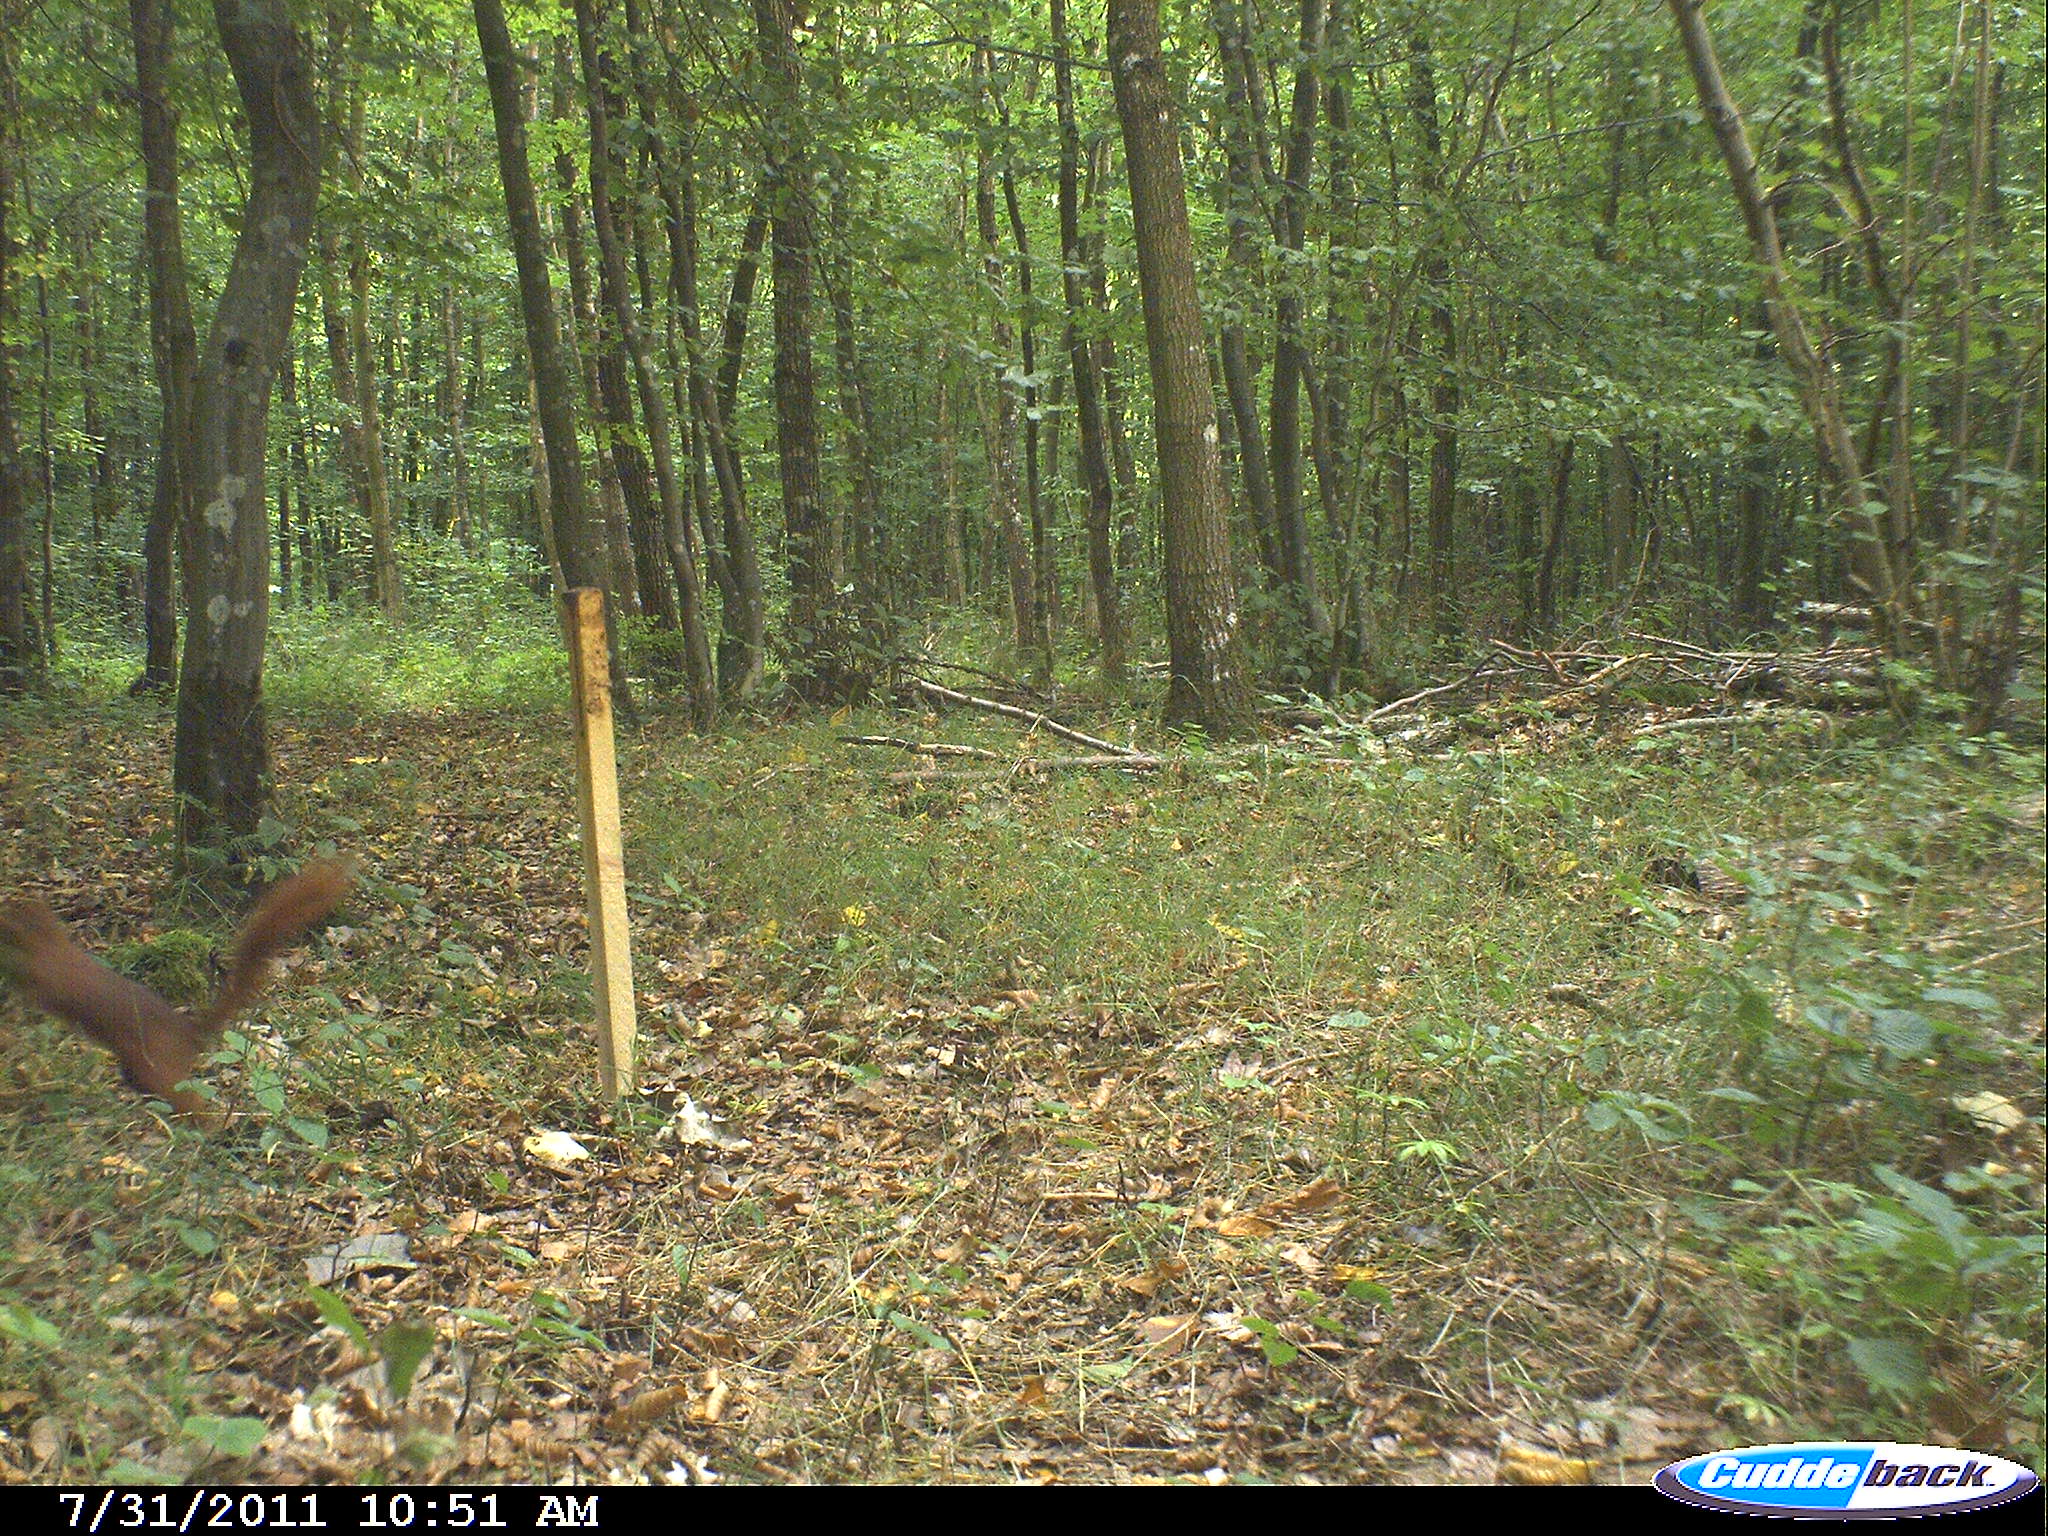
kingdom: Animalia
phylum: Chordata
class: Mammalia
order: Rodentia
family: Sciuridae
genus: Sciurus
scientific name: Sciurus vulgaris
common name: Eurasian red squirrel
